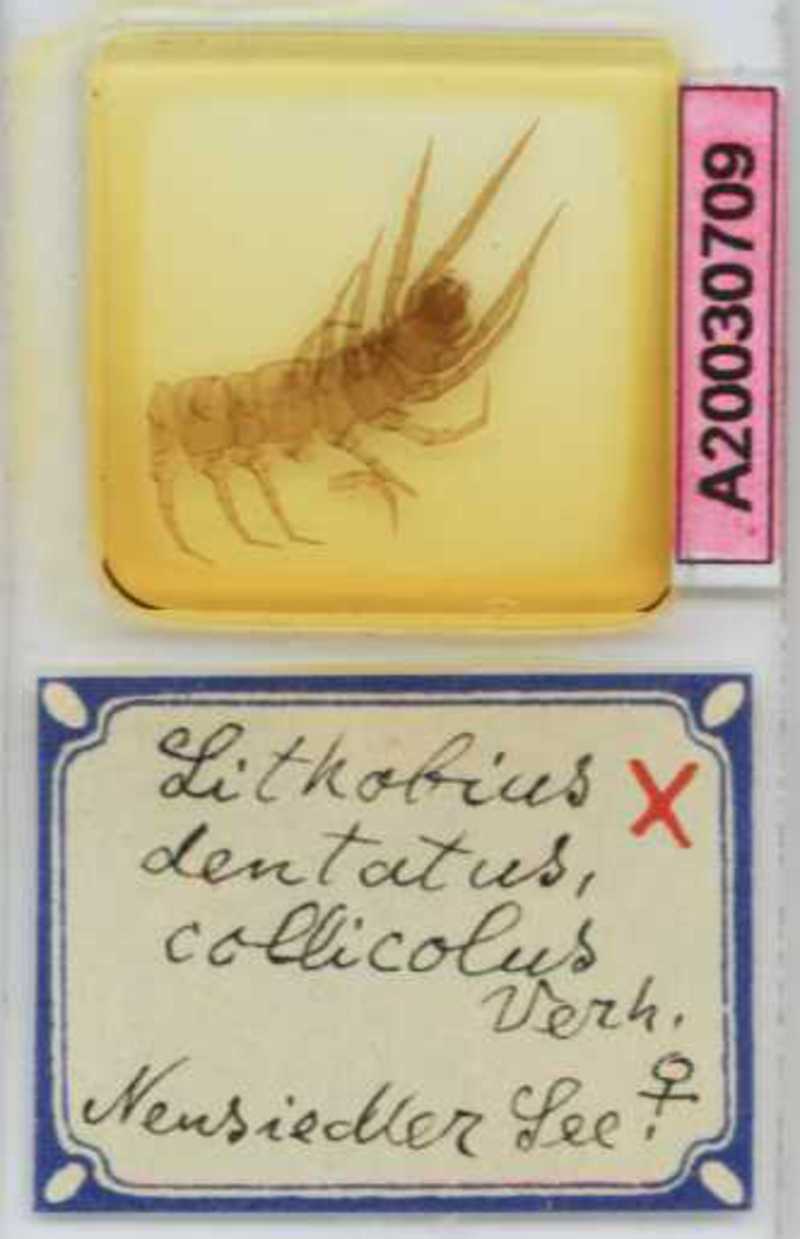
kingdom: Animalia
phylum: Arthropoda
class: Chilopoda
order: Lithobiomorpha
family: Lithobiidae
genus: Lithobius
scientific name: Lithobius dentatus
